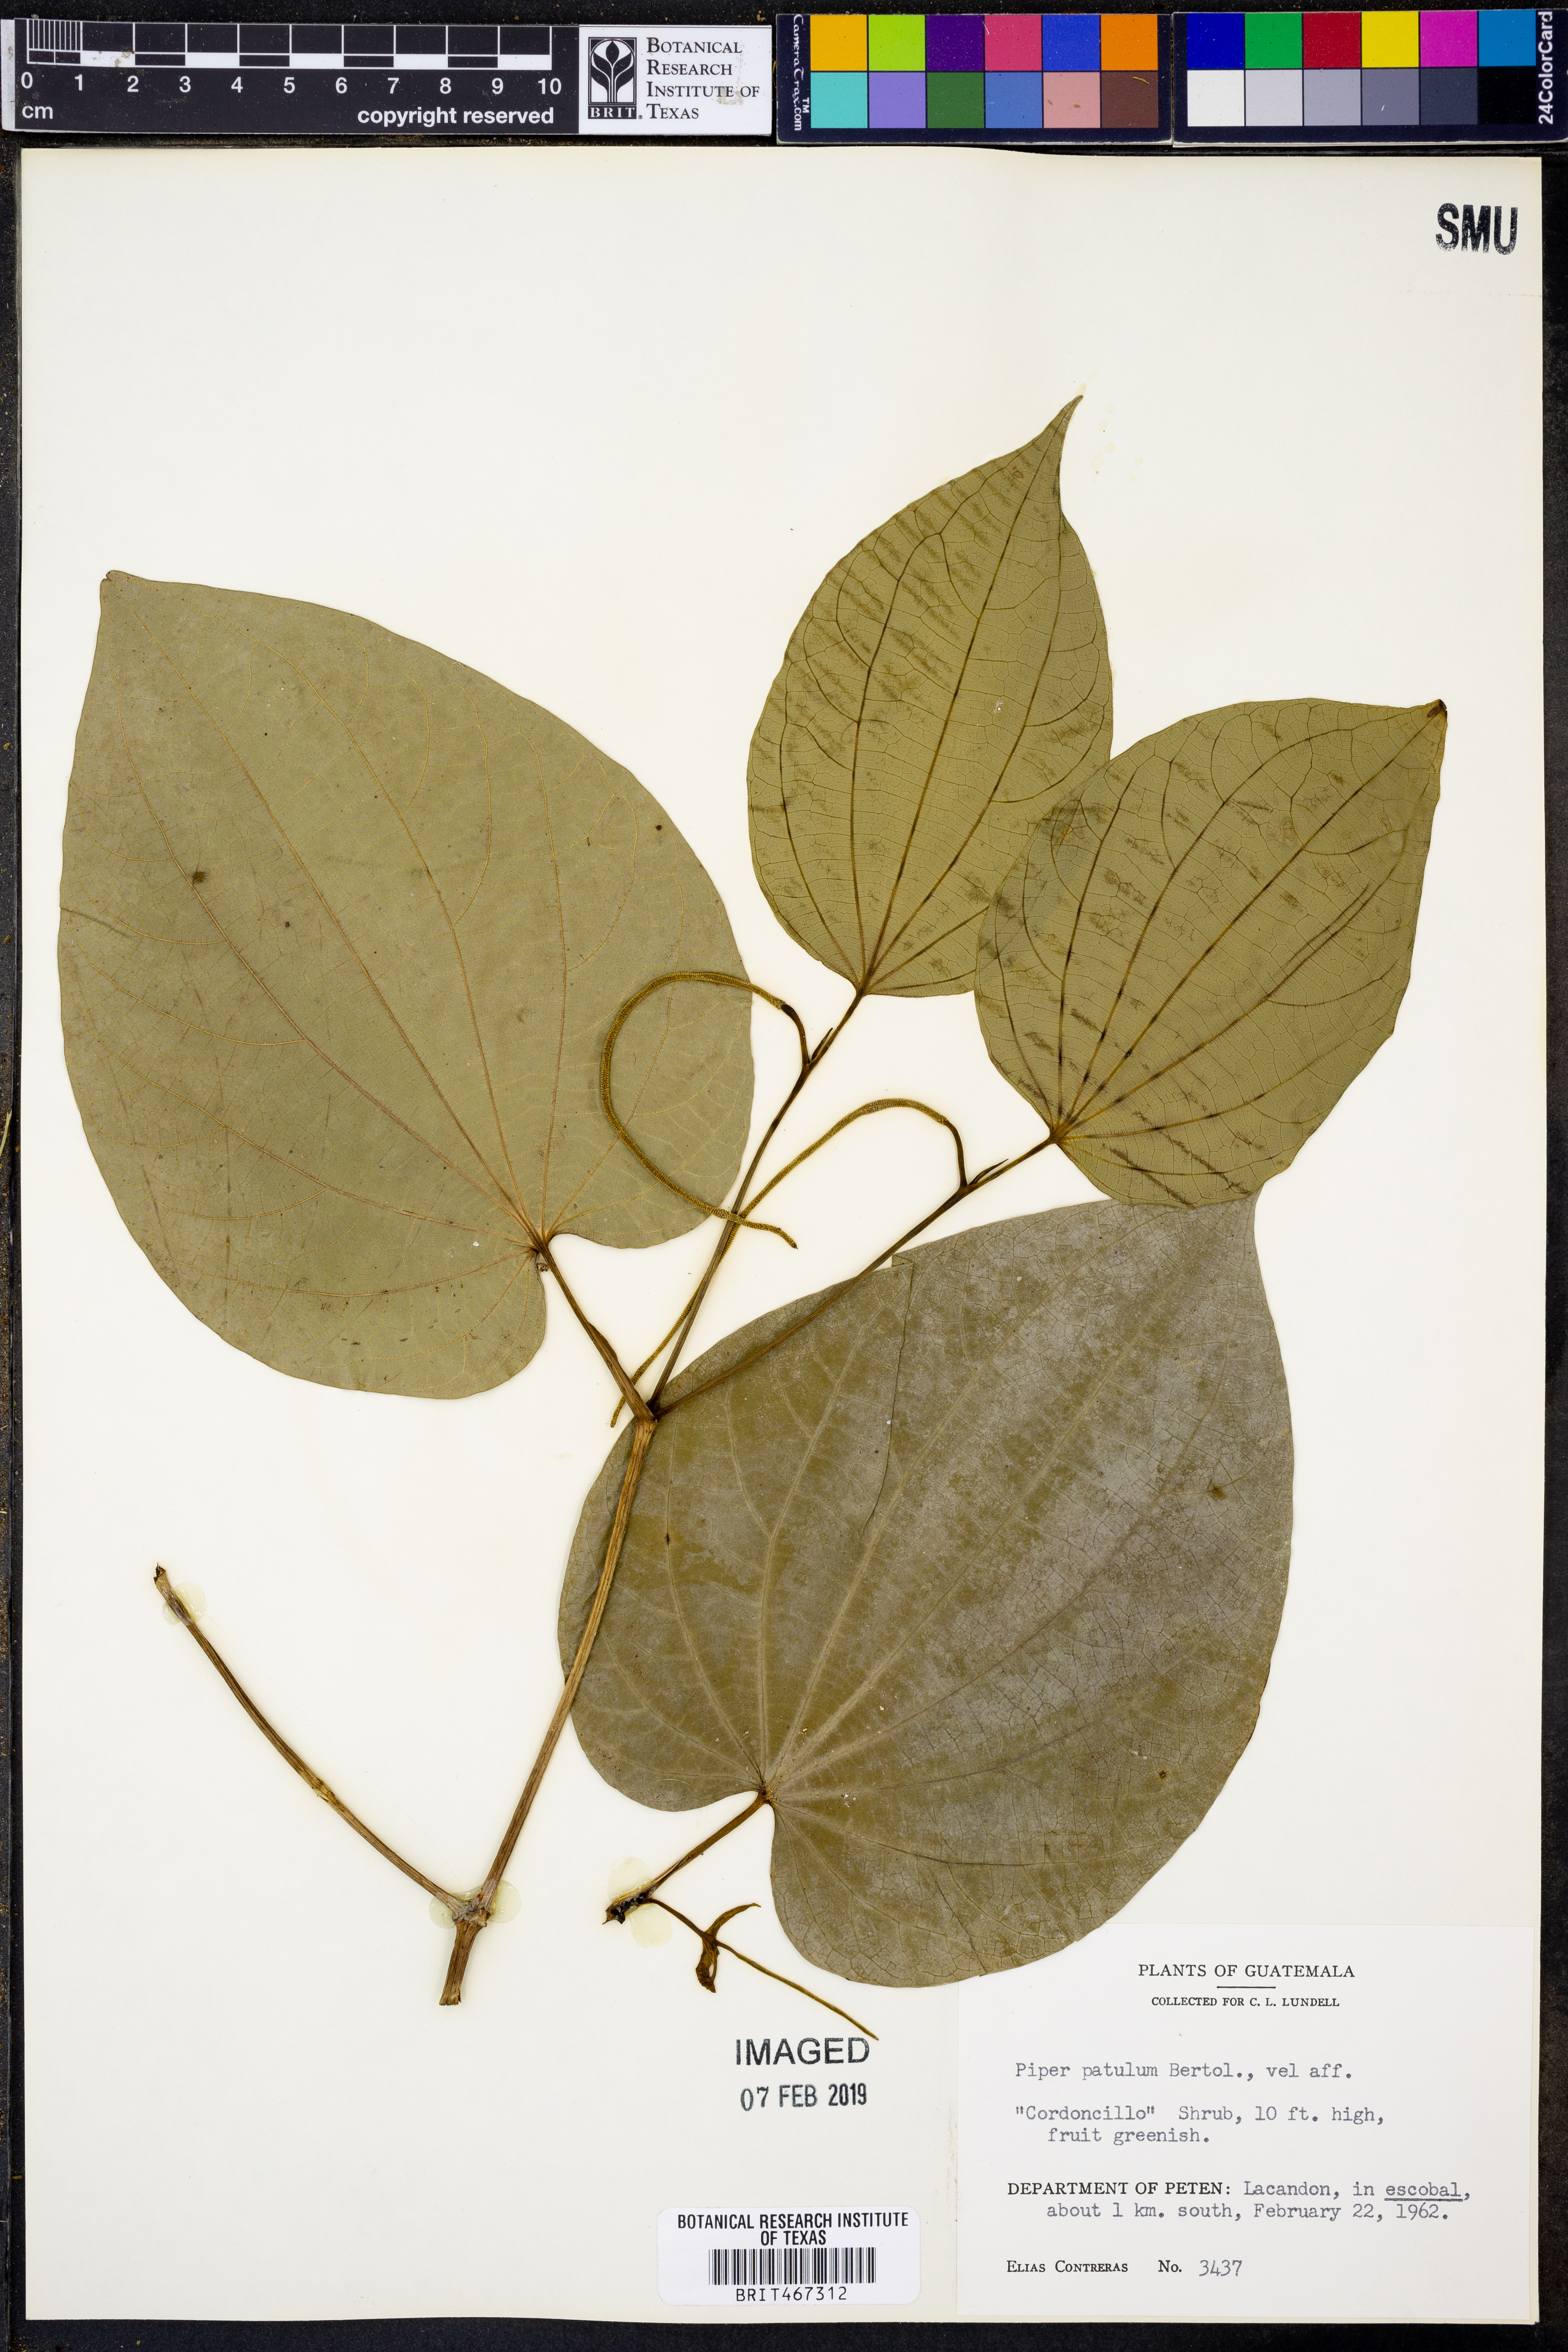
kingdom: Plantae
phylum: Tracheophyta
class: Magnoliopsida
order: Piperales
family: Piperaceae
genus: Piper
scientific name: Piper patulum
